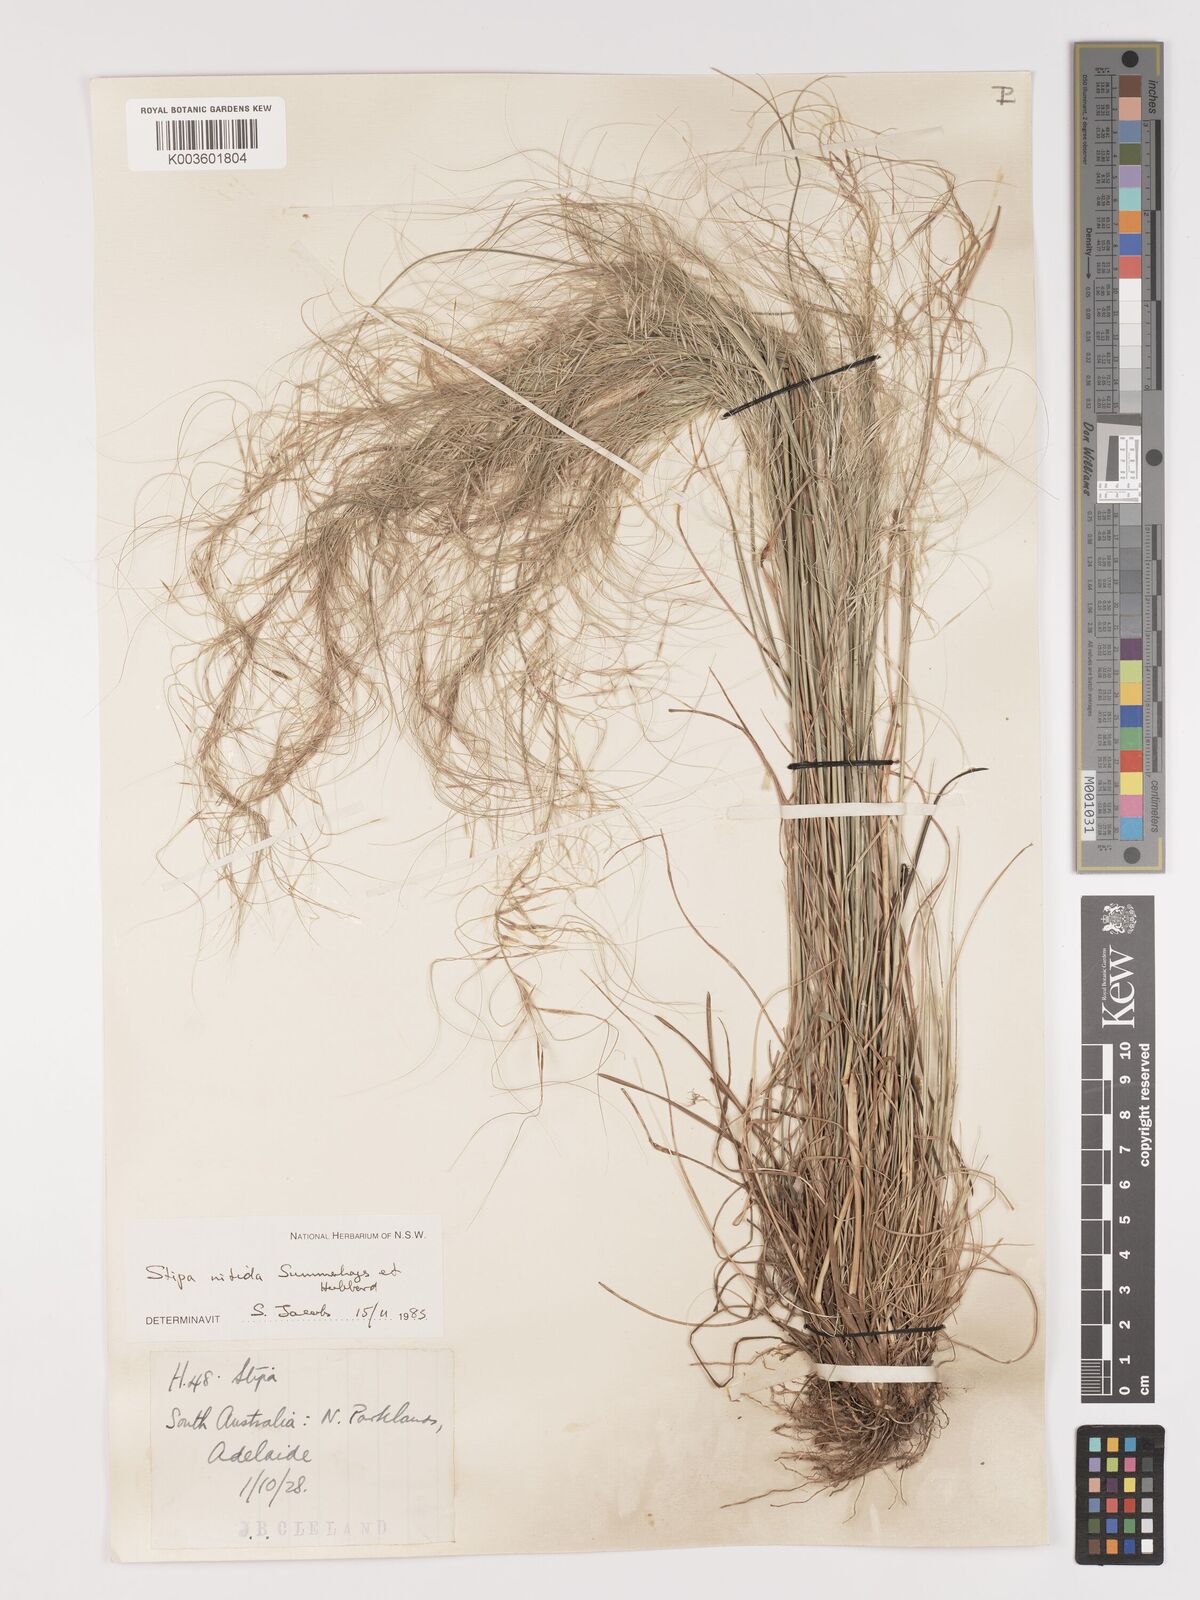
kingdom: Plantae
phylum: Tracheophyta
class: Liliopsida
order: Poales
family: Poaceae
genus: Austrostipa
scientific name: Austrostipa nitida
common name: Balcarra grass
